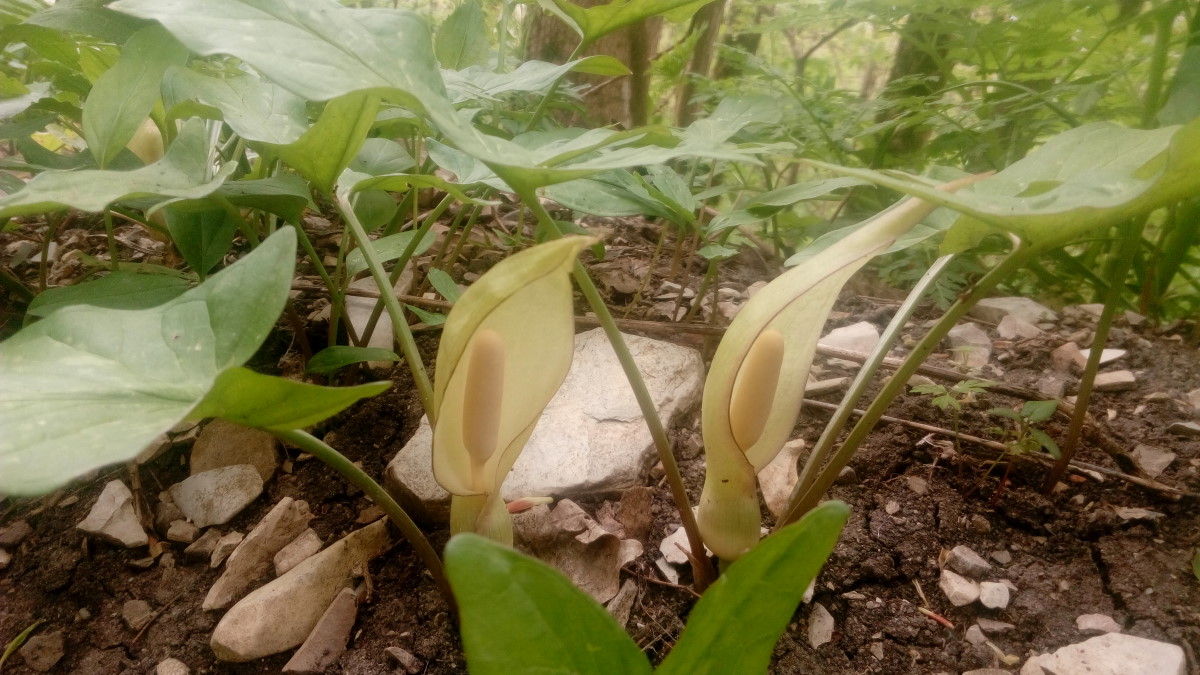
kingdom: Plantae
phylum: Tracheophyta
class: Liliopsida
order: Alismatales
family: Araceae
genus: Arum
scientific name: Arum maculatum
